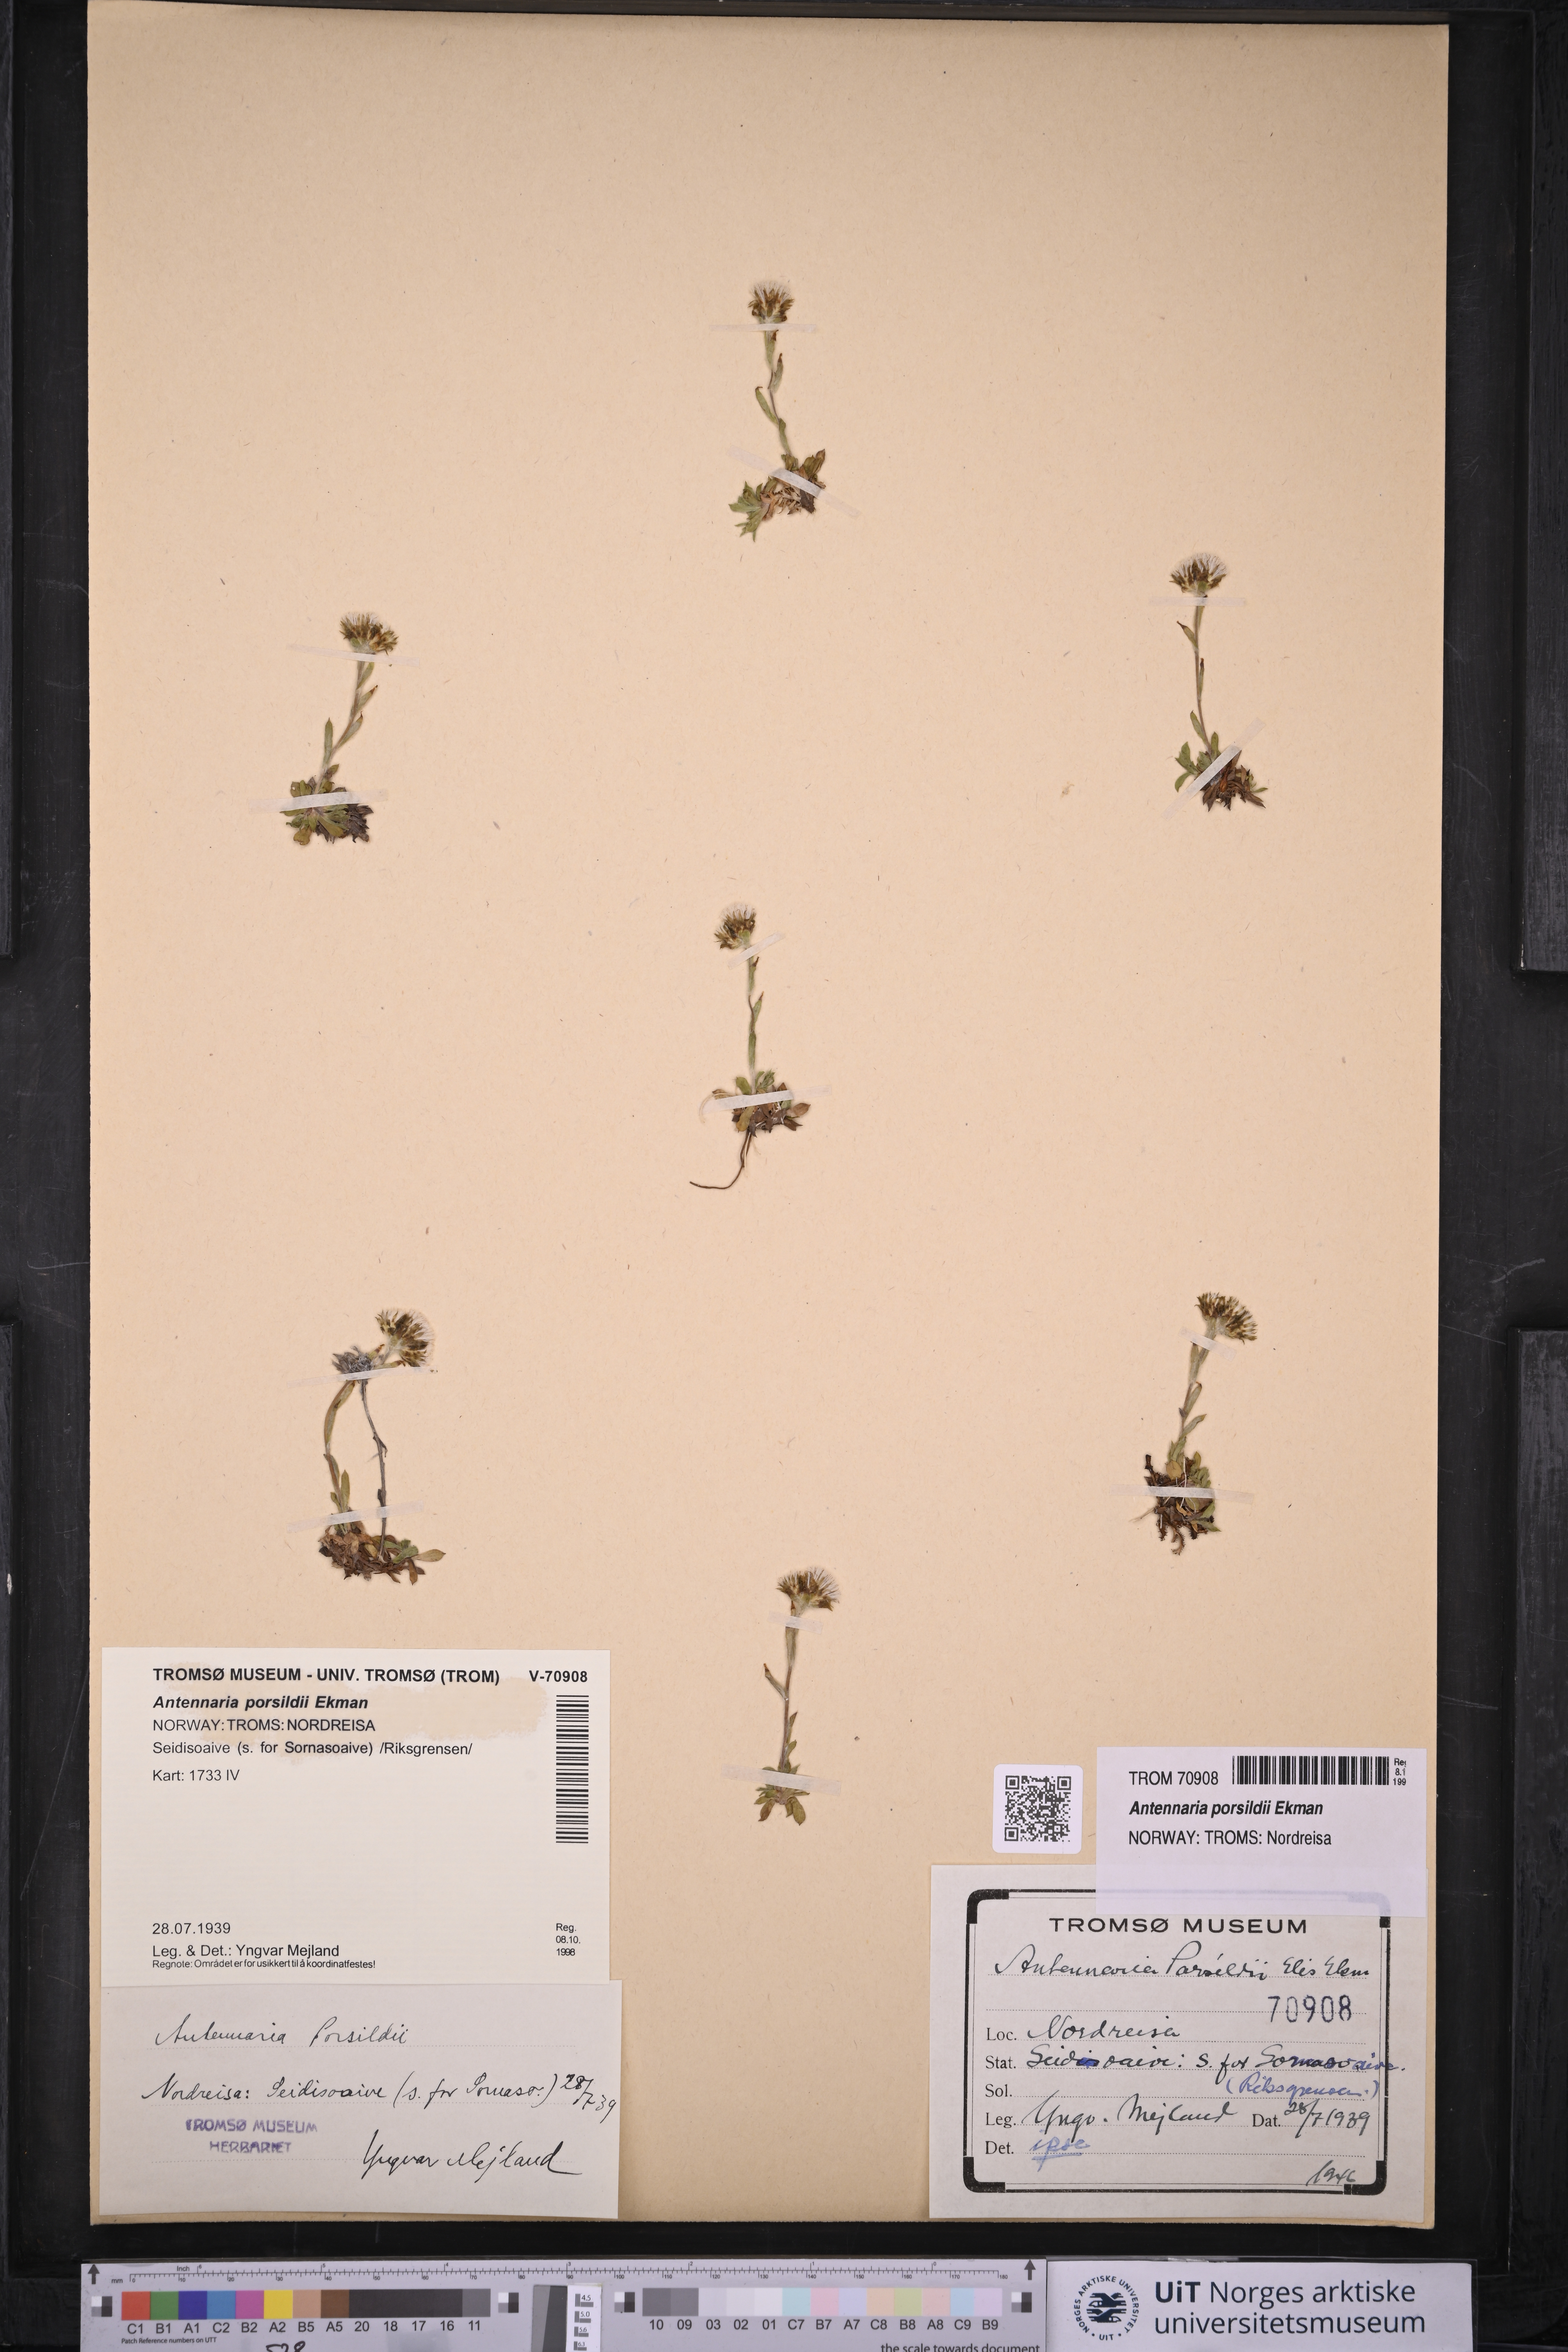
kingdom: Plantae
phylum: Tracheophyta
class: Magnoliopsida
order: Asterales
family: Asteraceae
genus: Antennaria
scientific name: Antennaria porsildii
